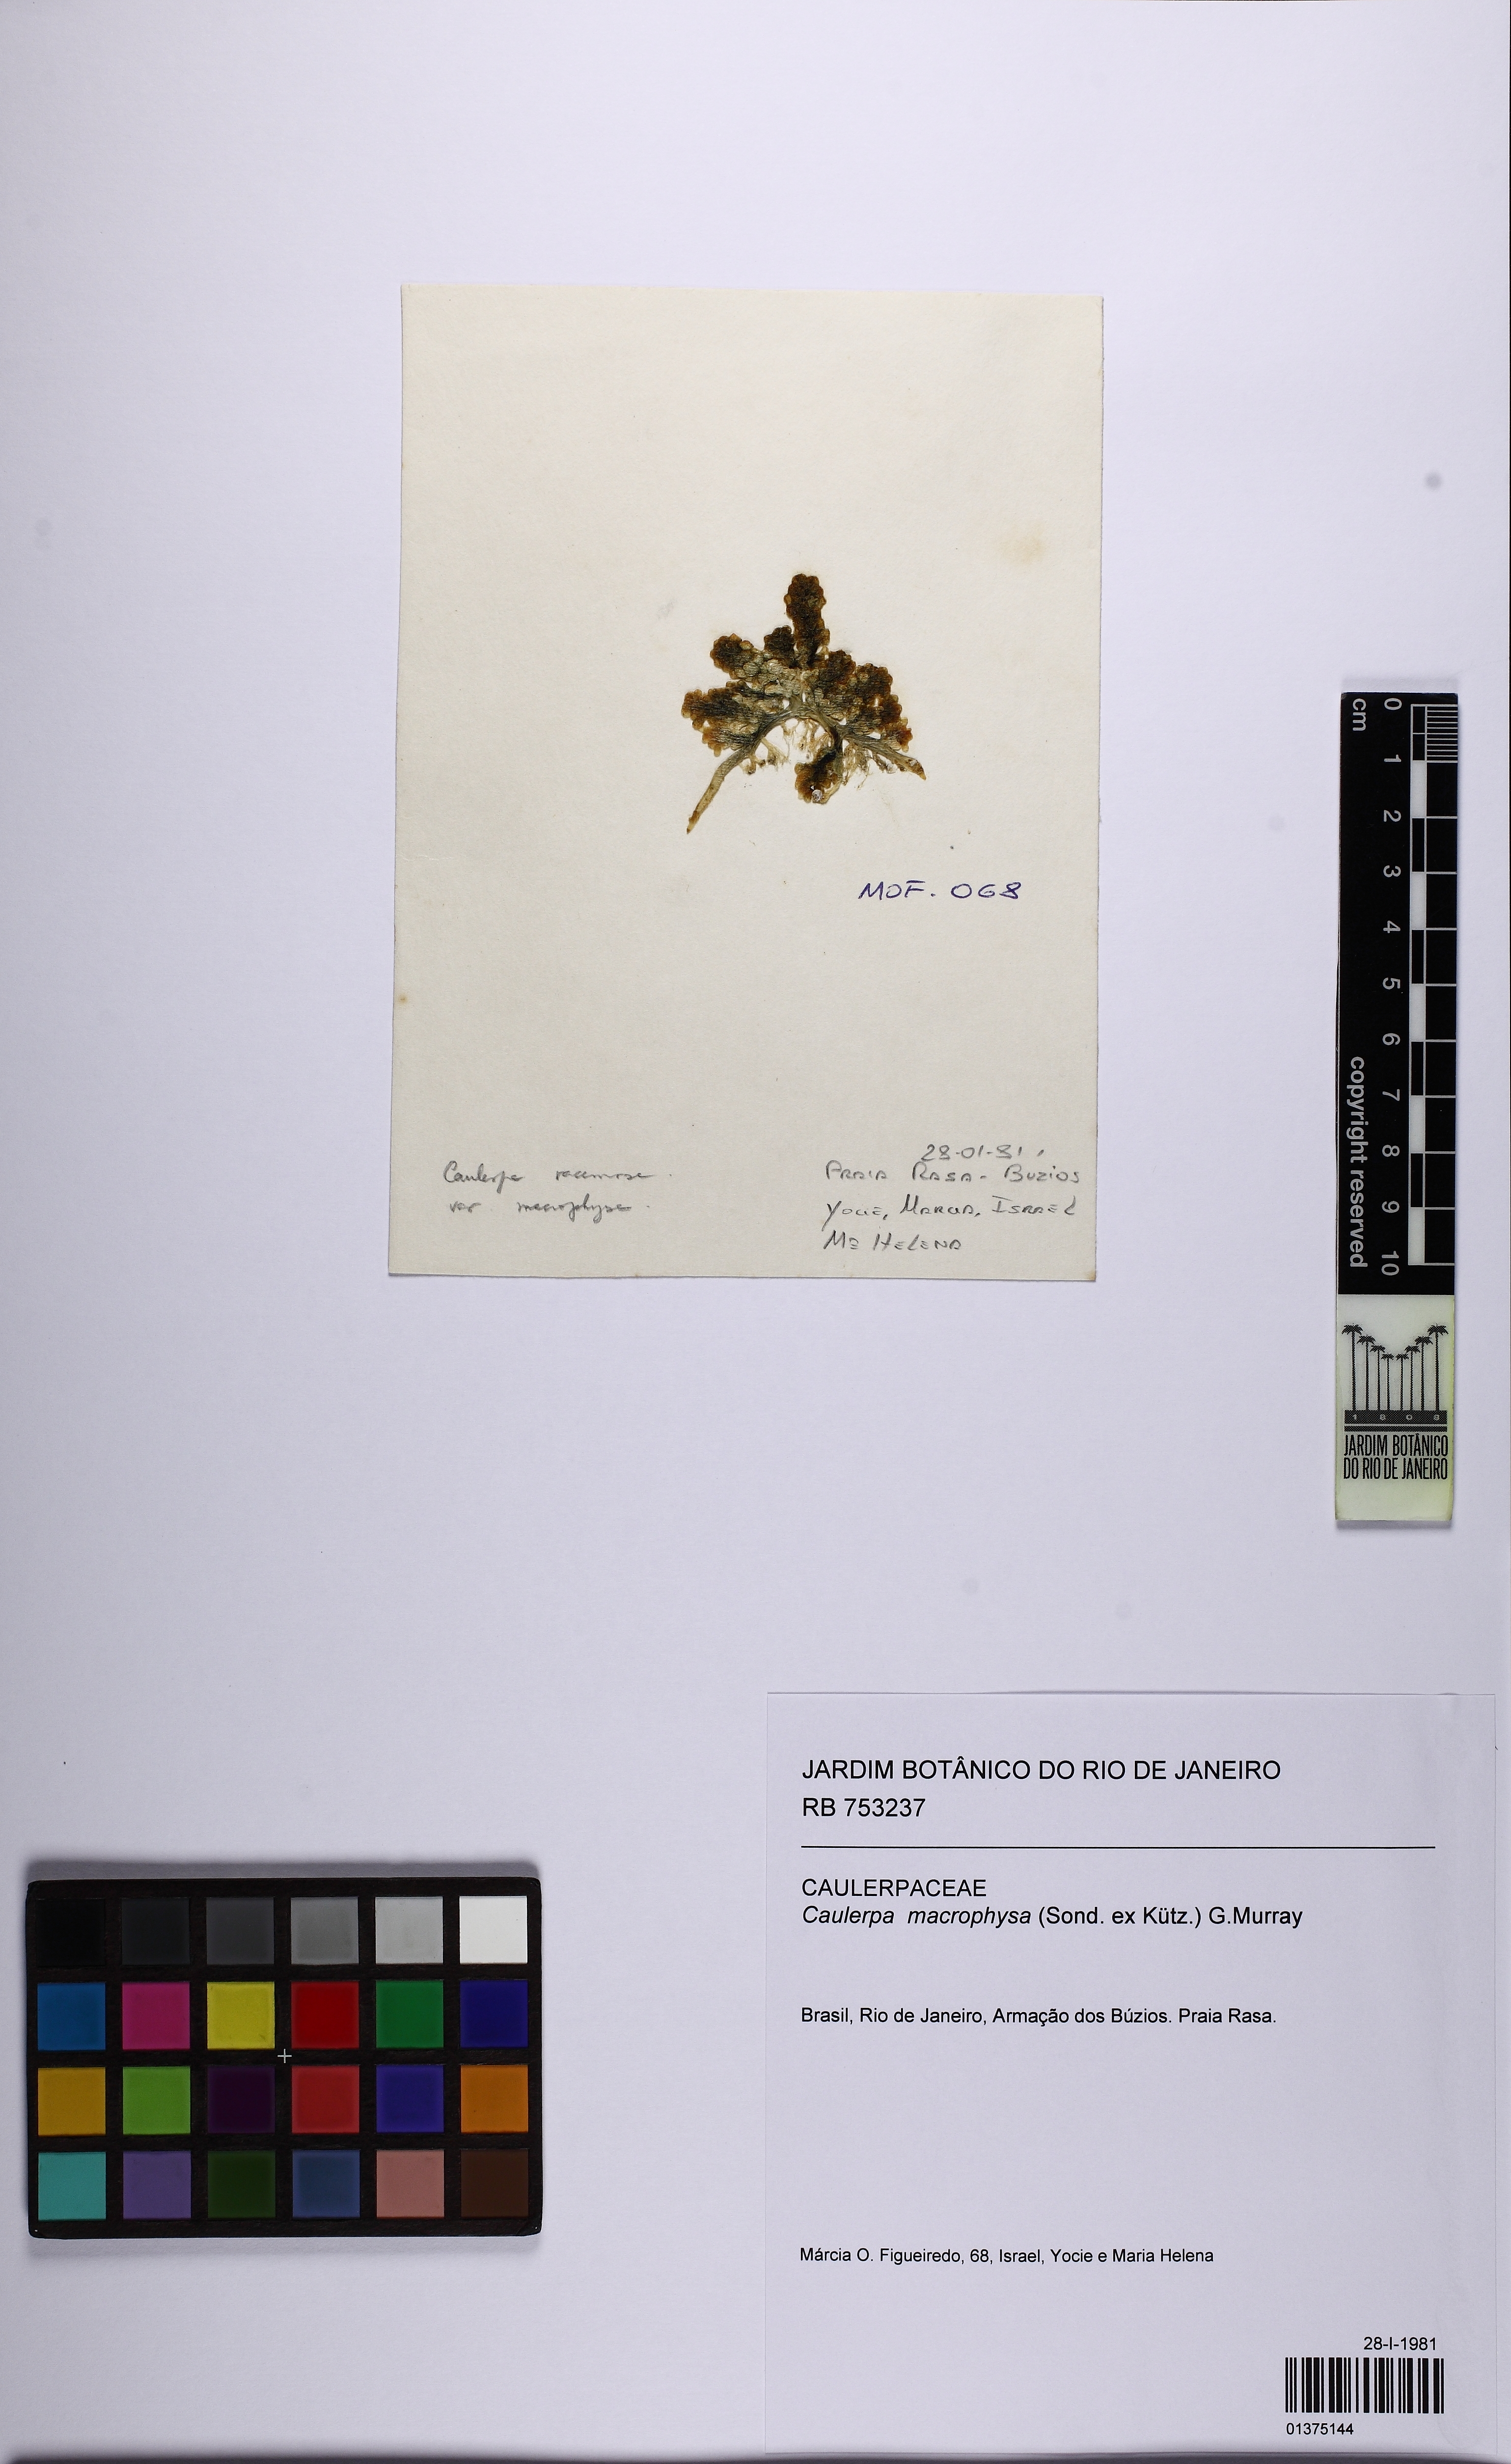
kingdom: Plantae
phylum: Chlorophyta
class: Ulvophyceae
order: Bryopsidales
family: Caulerpaceae
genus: Caulerpa
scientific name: Caulerpa macrophysa
